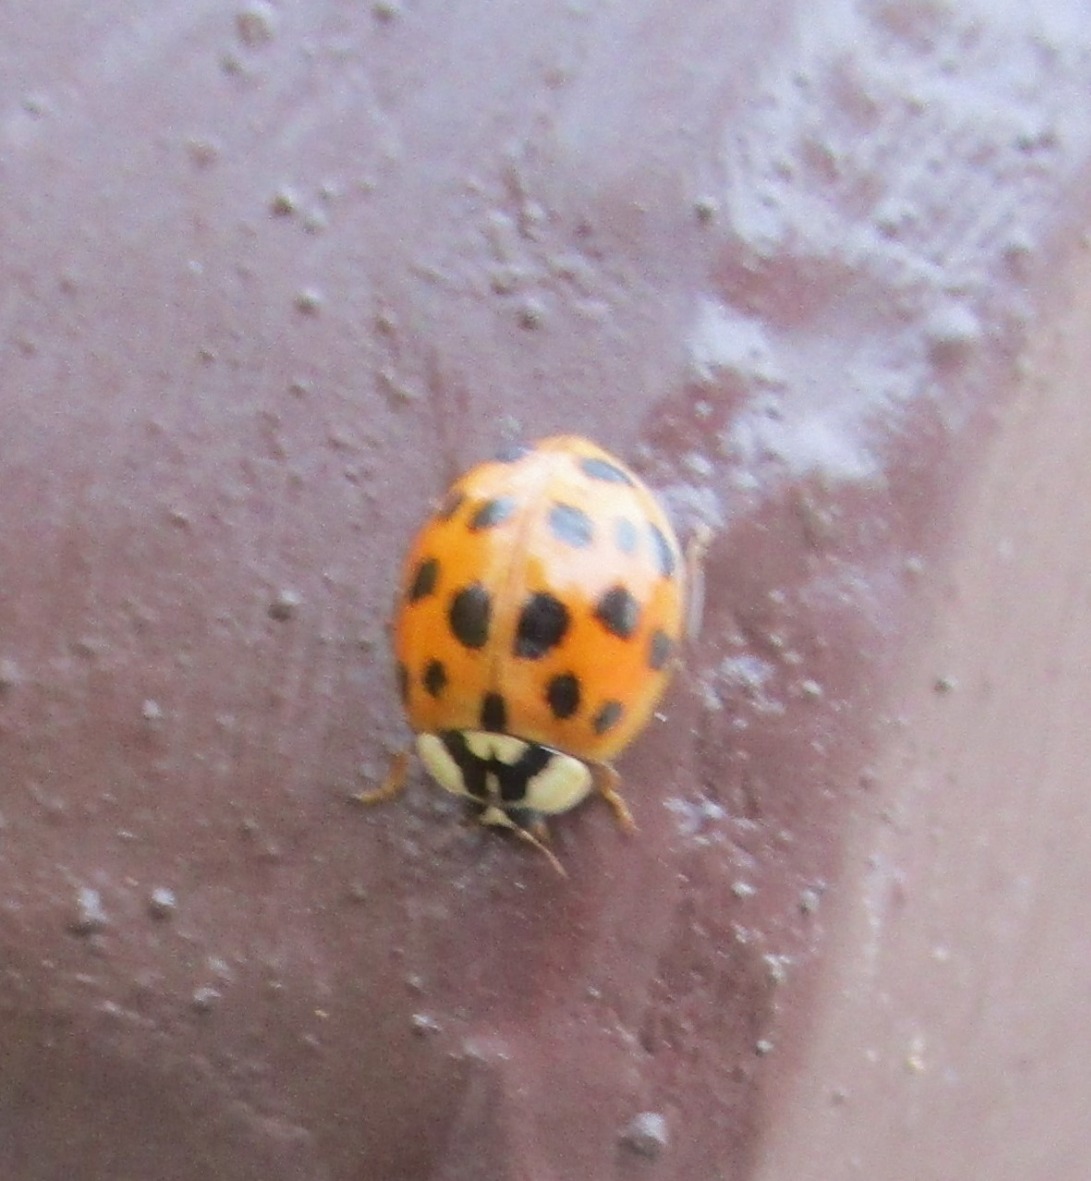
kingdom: Animalia
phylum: Arthropoda
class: Insecta
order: Coleoptera
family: Coccinellidae
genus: Harmonia
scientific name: Harmonia axyridis
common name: Harlekinmariehøne
